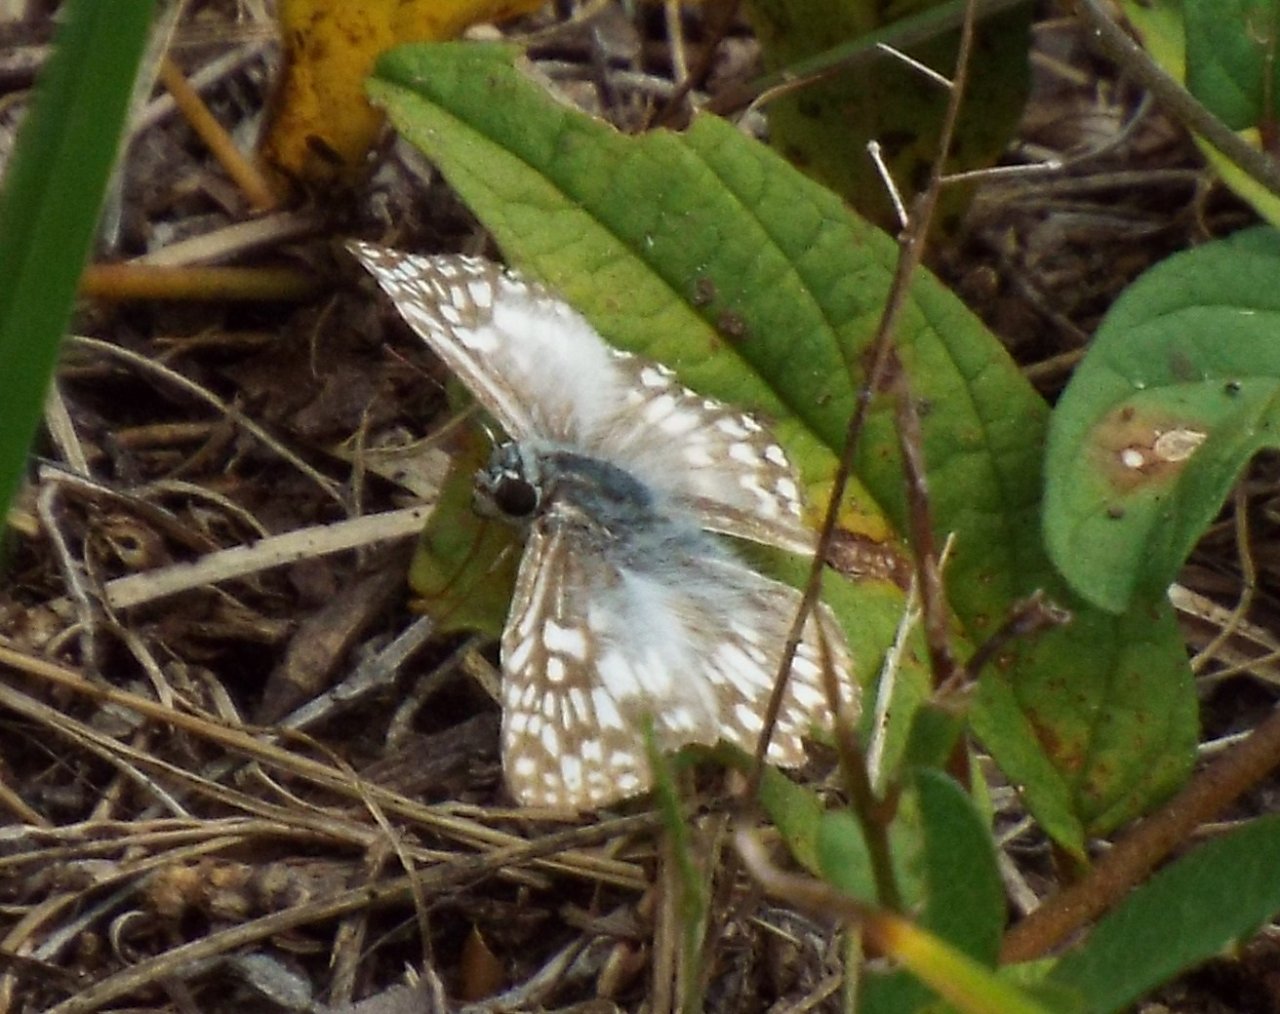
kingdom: Animalia
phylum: Arthropoda
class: Insecta
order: Lepidoptera
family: Hesperiidae
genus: Pyrgus
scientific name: Pyrgus oileus
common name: Tropical Checkered-Skipper
